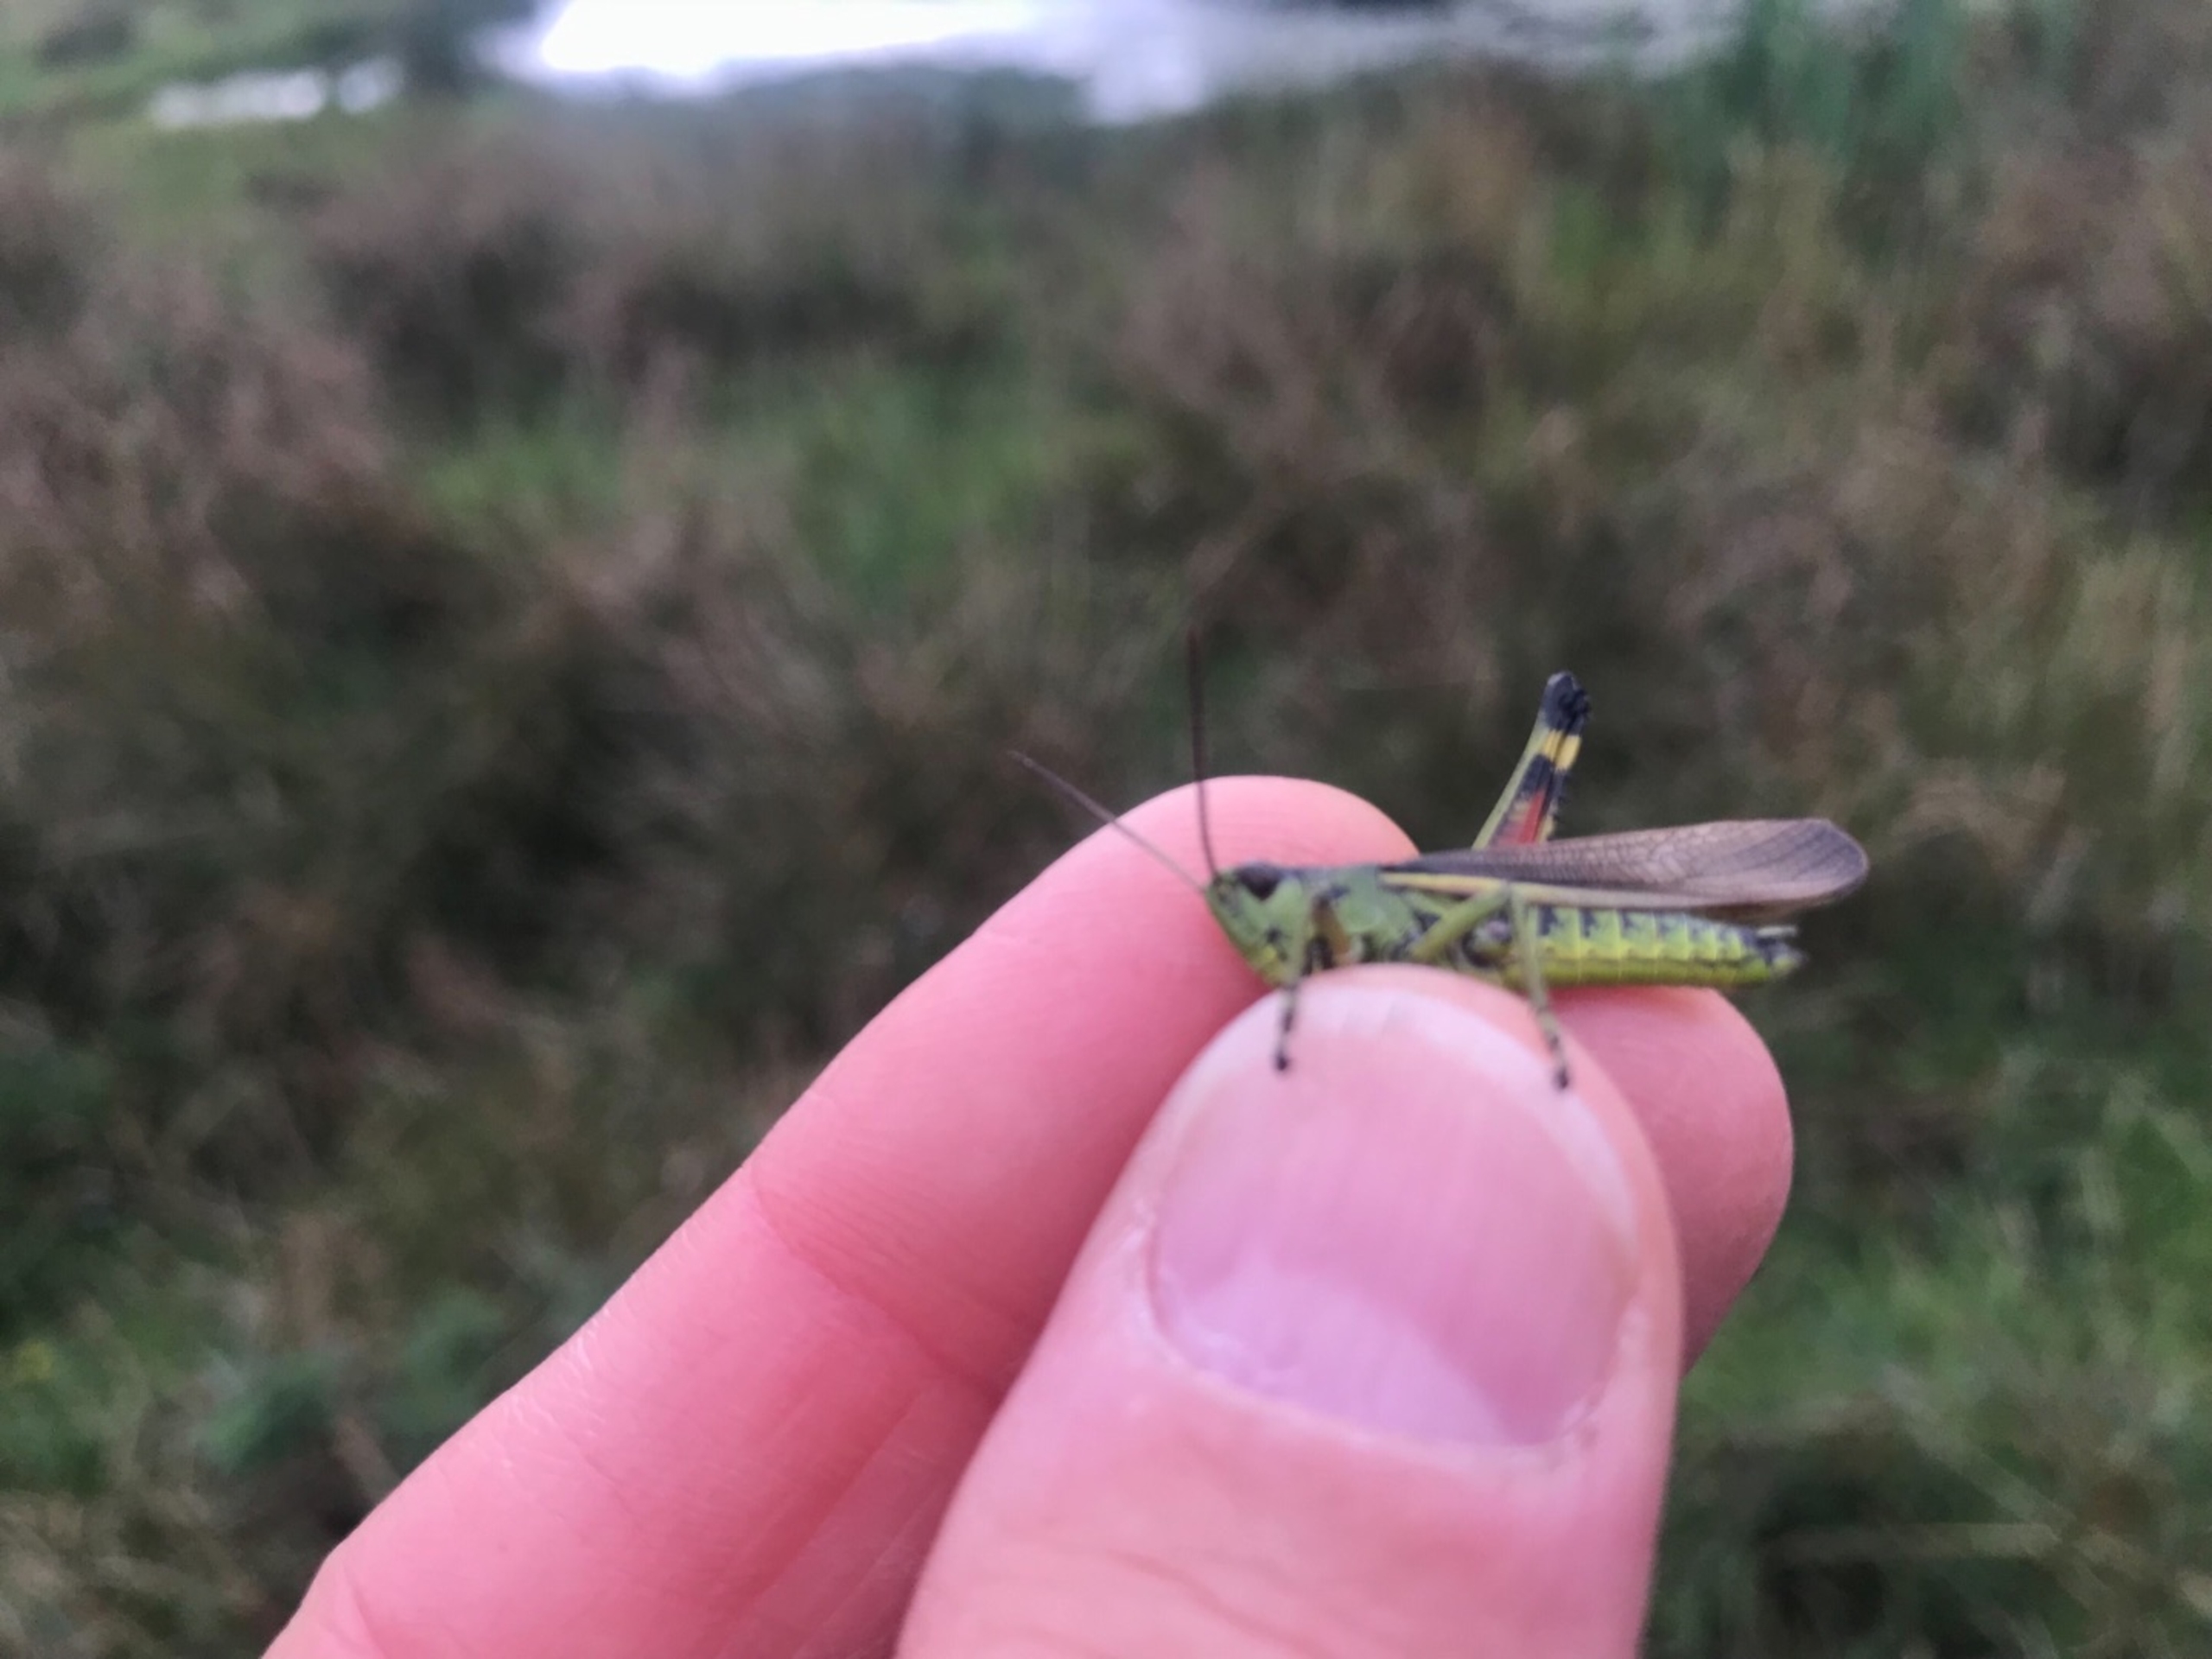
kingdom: Animalia
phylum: Arthropoda
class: Insecta
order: Orthoptera
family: Acrididae
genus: Stethophyma
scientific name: Stethophyma grossum
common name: Sumpgræshoppe
